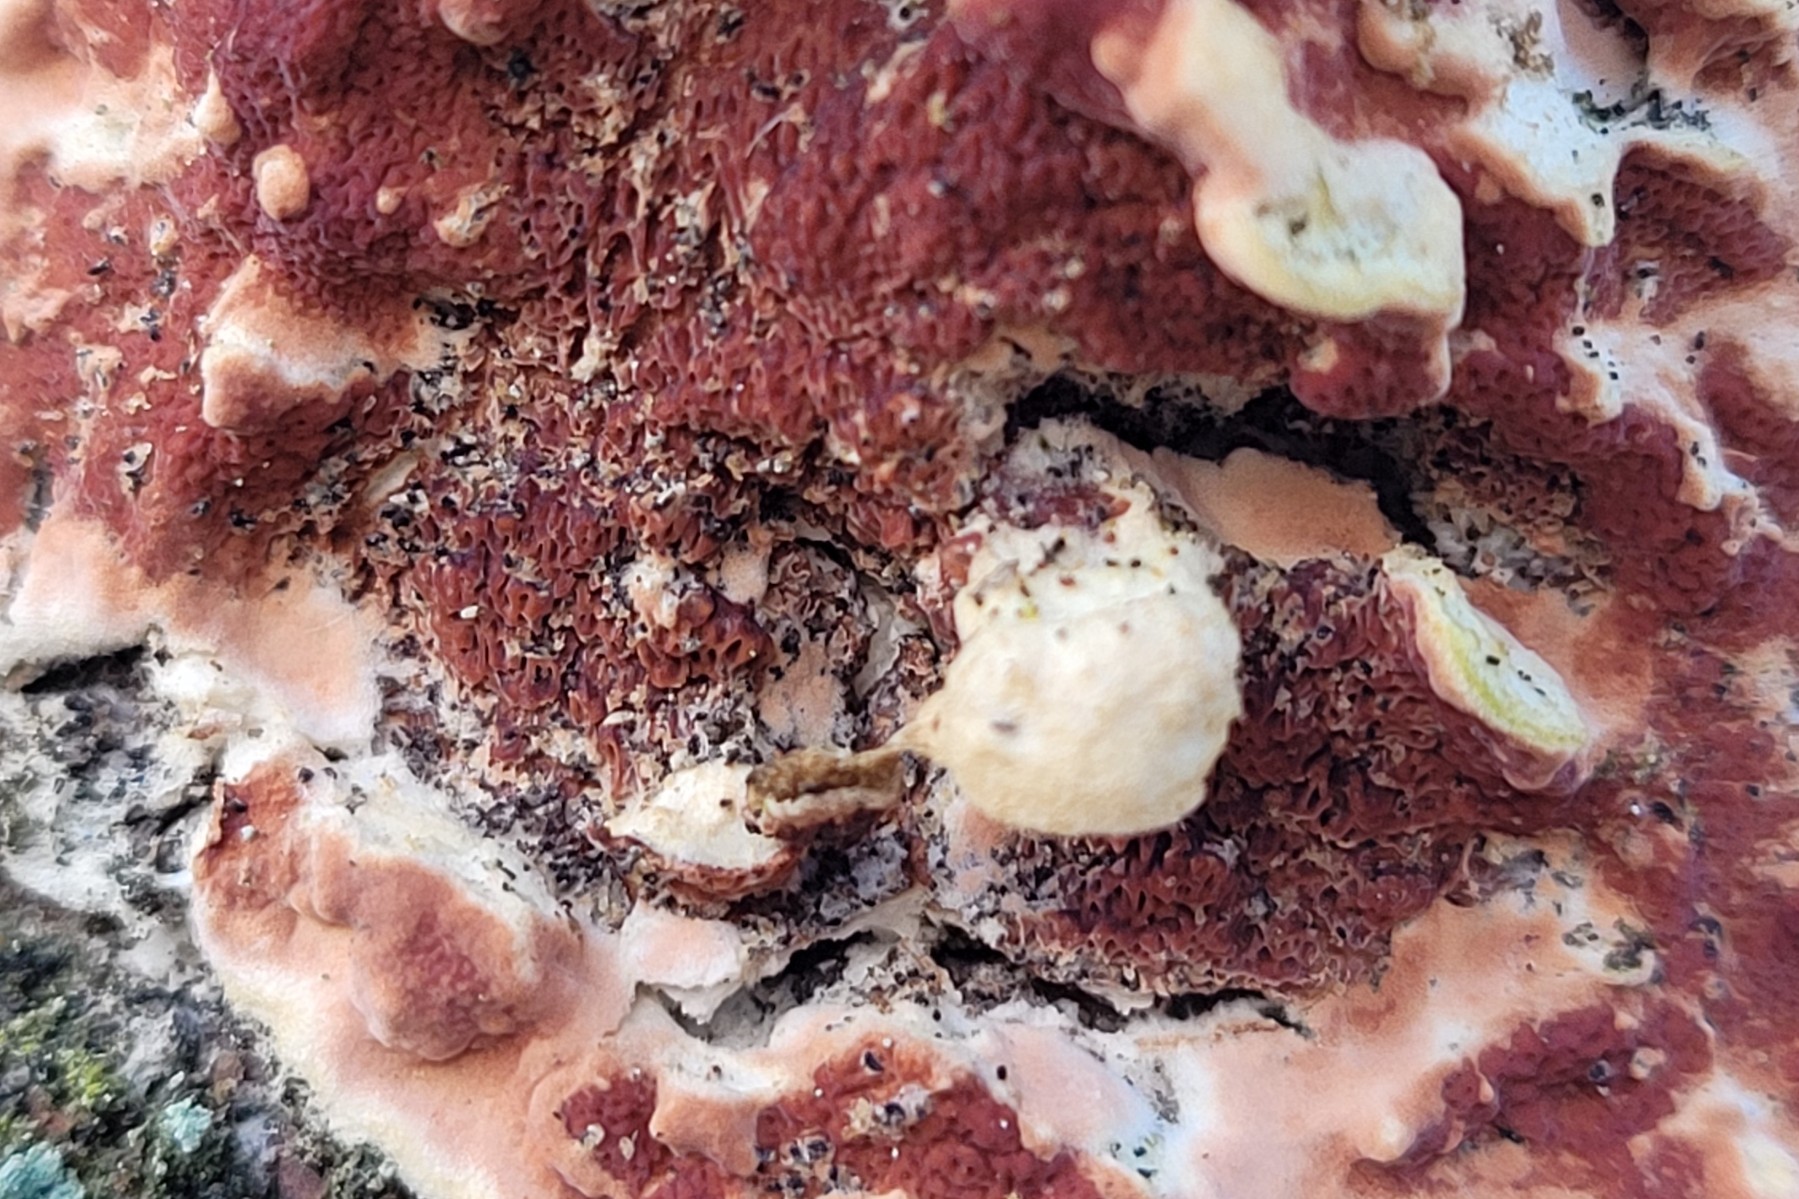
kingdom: Fungi
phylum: Basidiomycota
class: Agaricomycetes
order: Polyporales
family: Irpicaceae
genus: Meruliopsis
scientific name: Meruliopsis taxicola
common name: purpurbrun foldporesvamp
